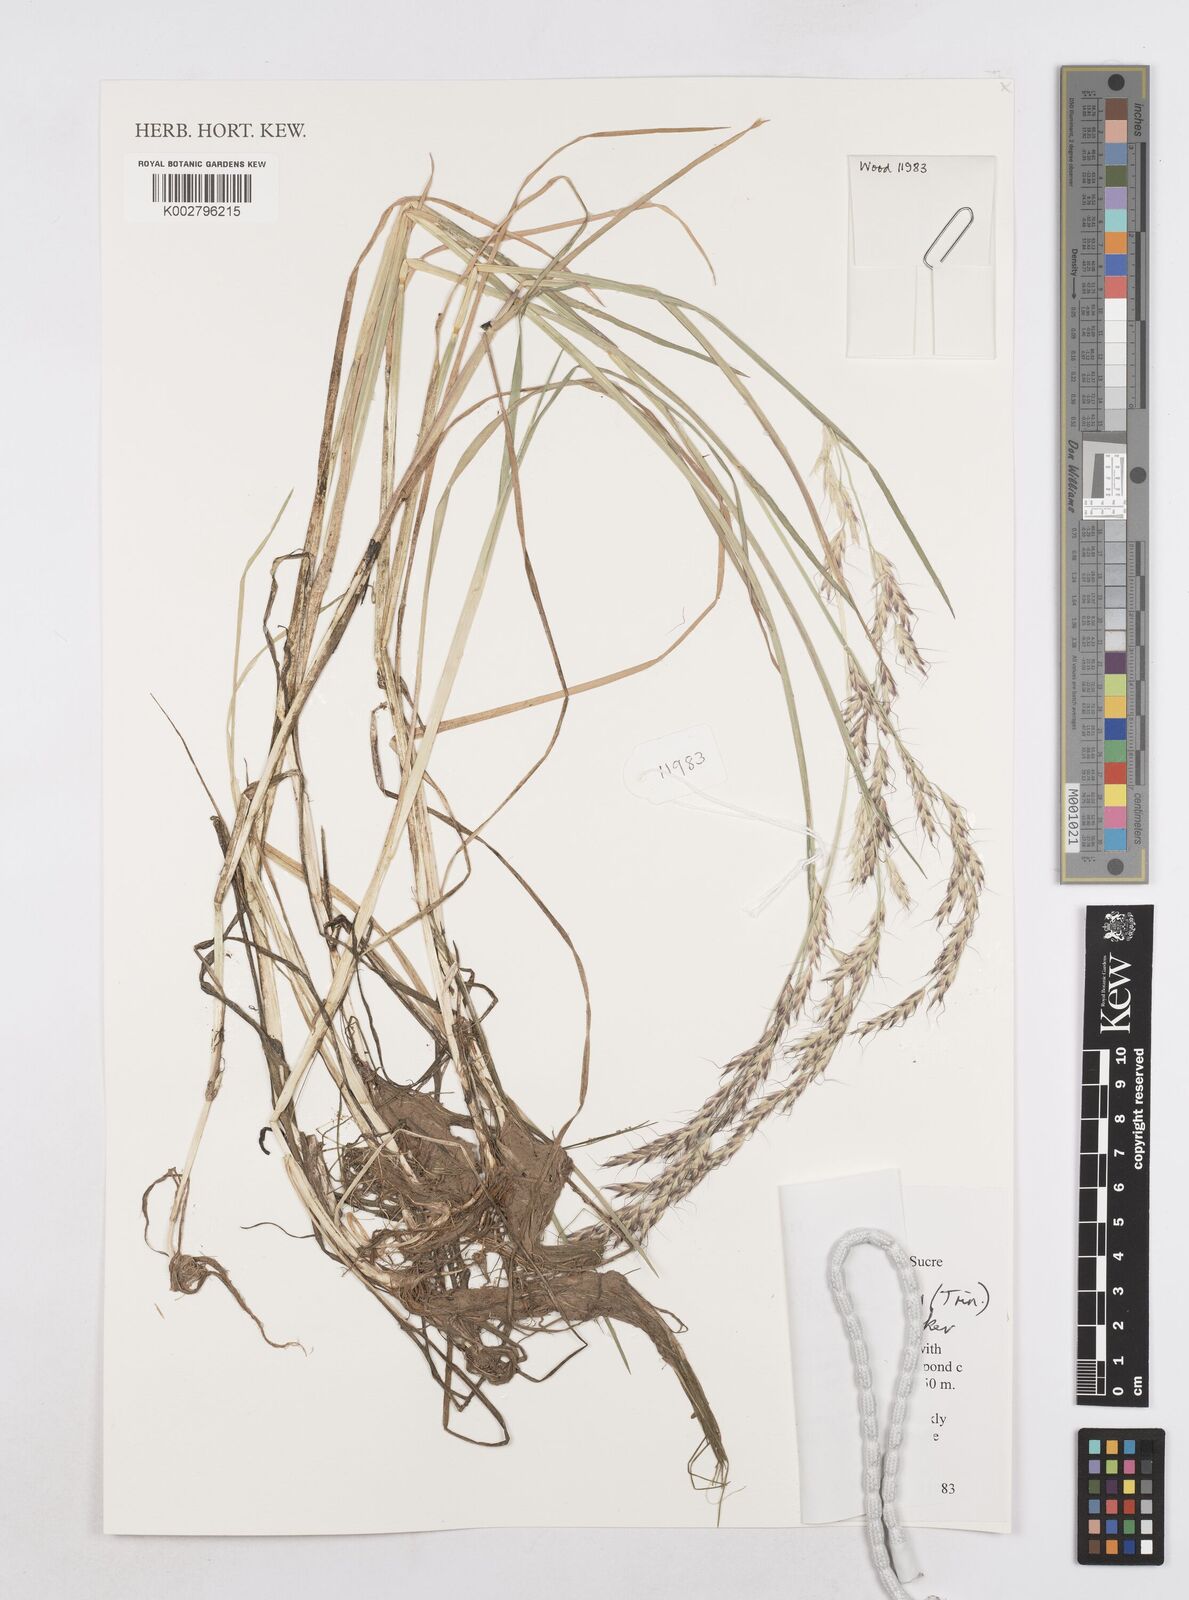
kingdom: Plantae
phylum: Tracheophyta
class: Liliopsida
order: Poales
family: Poaceae
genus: Amphibromus
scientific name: Amphibromus scabrivalvis
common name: Swamp wallaby grass
